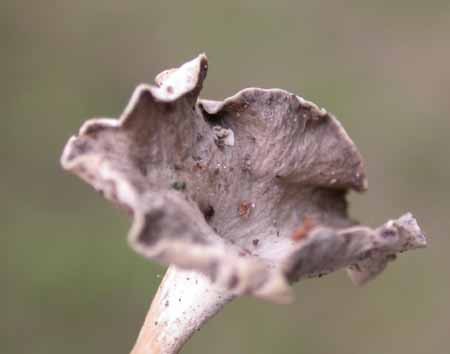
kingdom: Fungi
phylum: Basidiomycota
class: Agaricomycetes
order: Cantharellales
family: Hydnaceae
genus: Craterellus
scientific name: Craterellus undulatus
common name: liden kantarel
